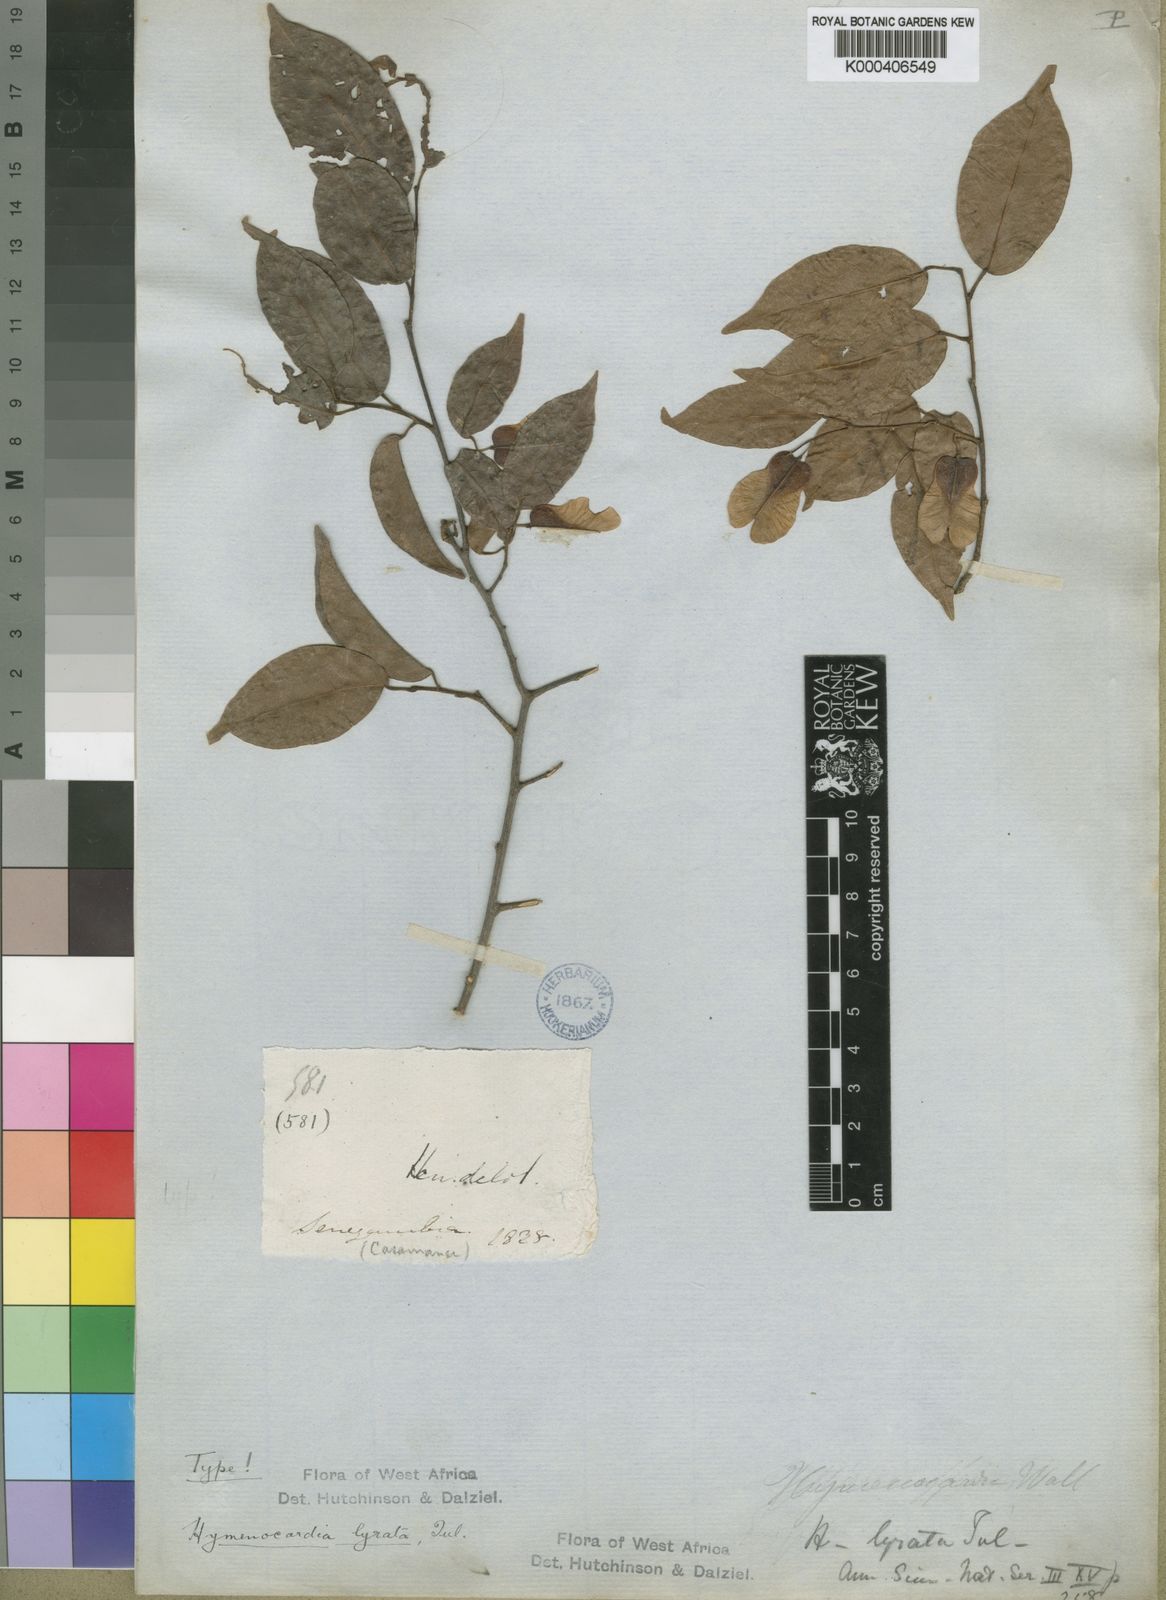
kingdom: Plantae
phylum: Tracheophyta
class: Magnoliopsida
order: Malpighiales
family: Phyllanthaceae
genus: Hymenocardia
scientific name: Hymenocardia lyrata
